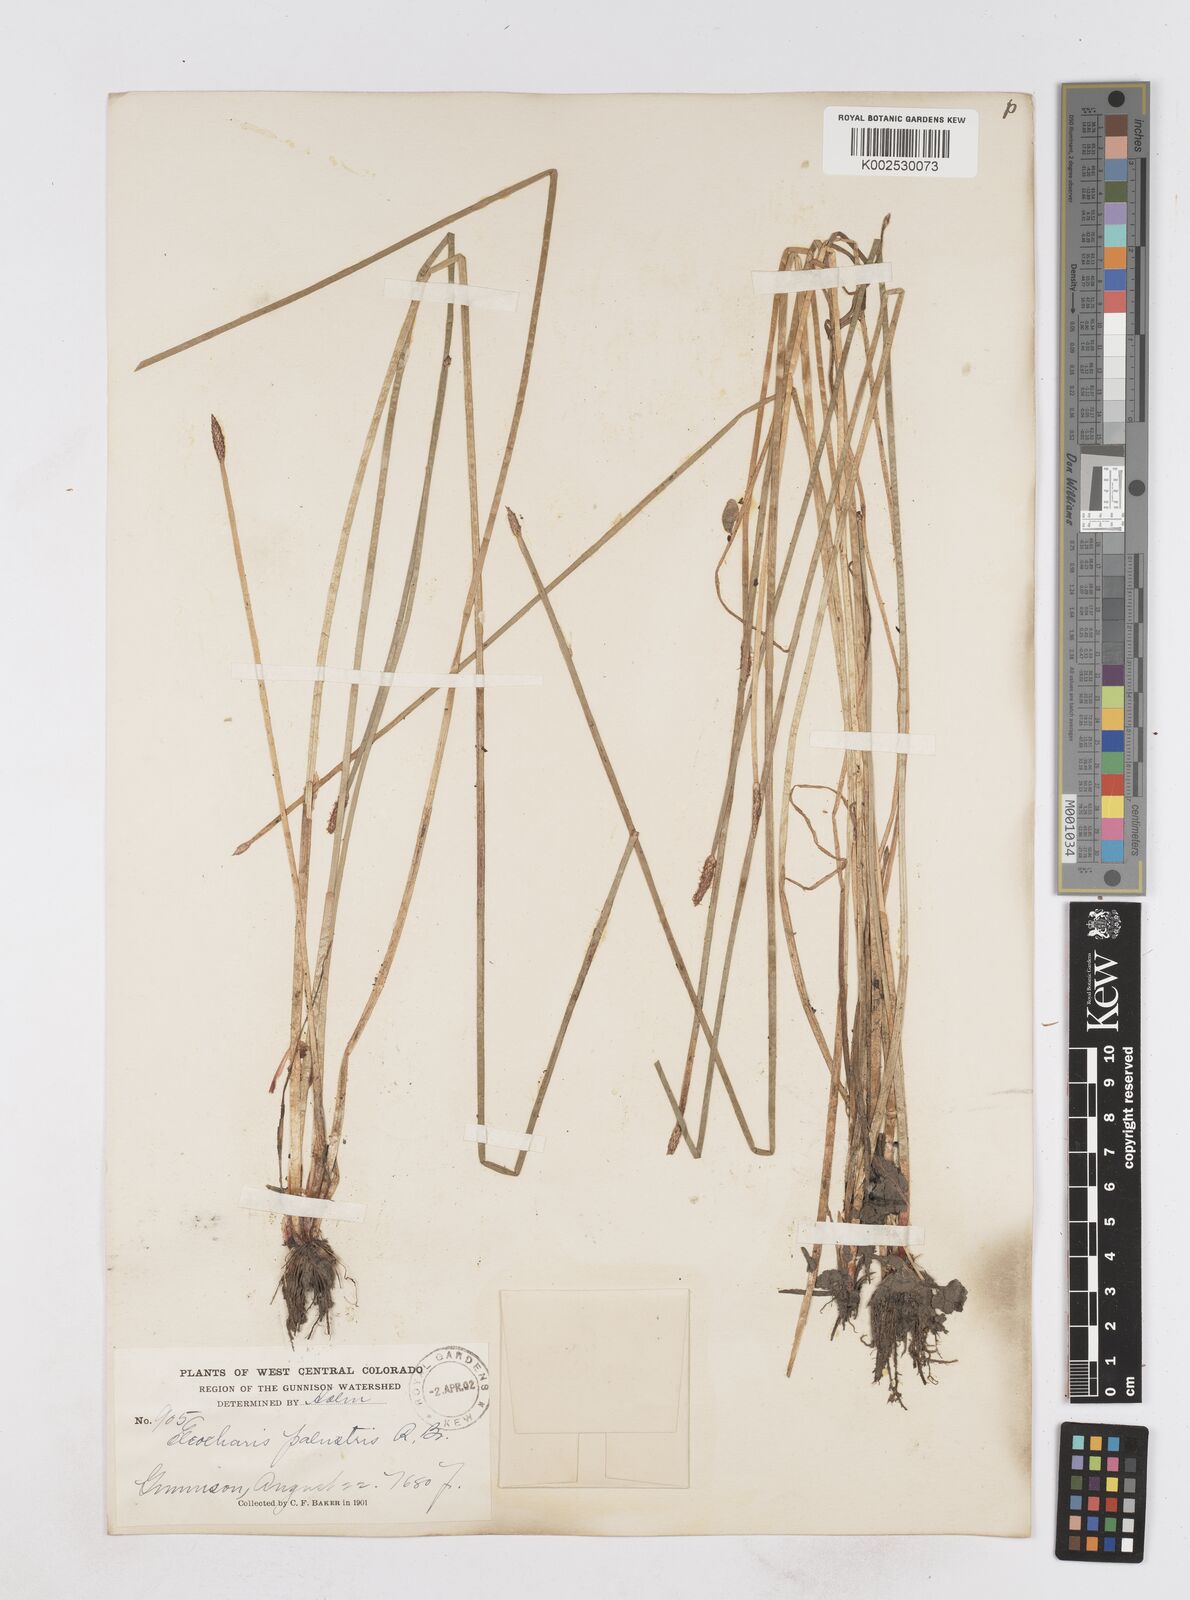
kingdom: Plantae
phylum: Tracheophyta
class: Liliopsida
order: Poales
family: Cyperaceae
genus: Eleocharis
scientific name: Eleocharis palustris
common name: Common spike-rush
